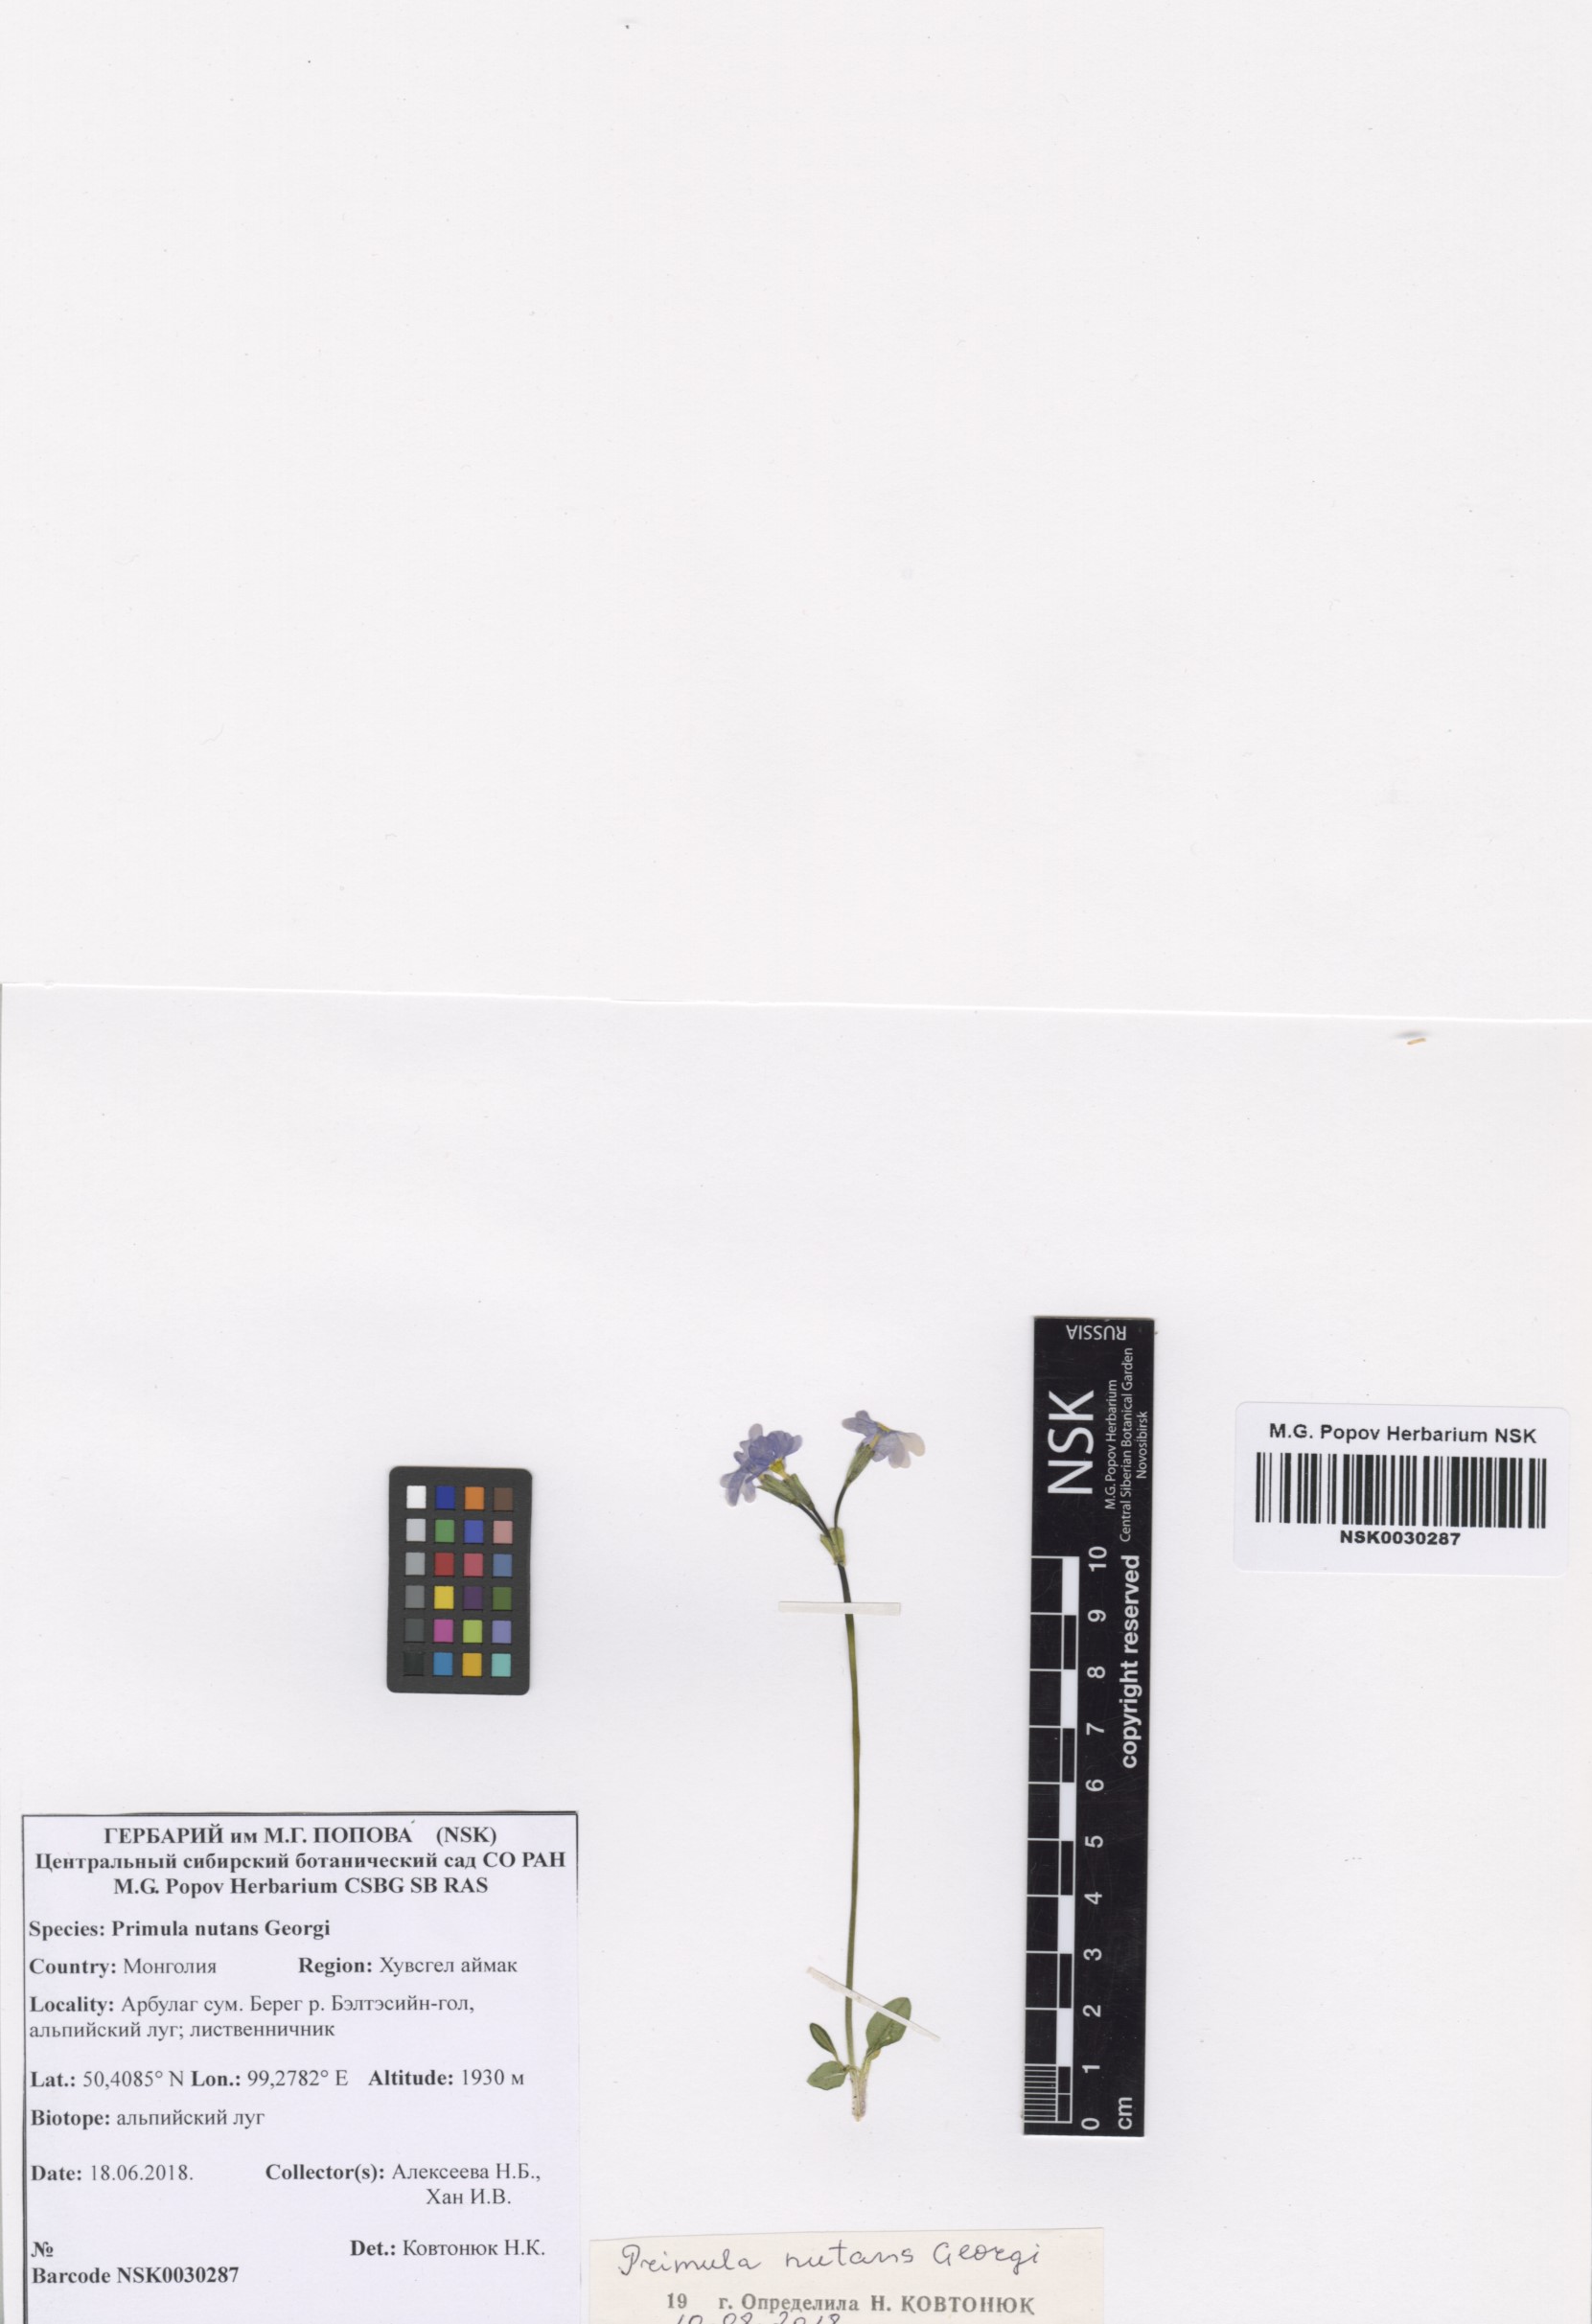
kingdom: Plantae
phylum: Tracheophyta
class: Magnoliopsida
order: Ericales
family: Primulaceae
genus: Primula
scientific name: Primula nutans
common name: Siberian primrose
